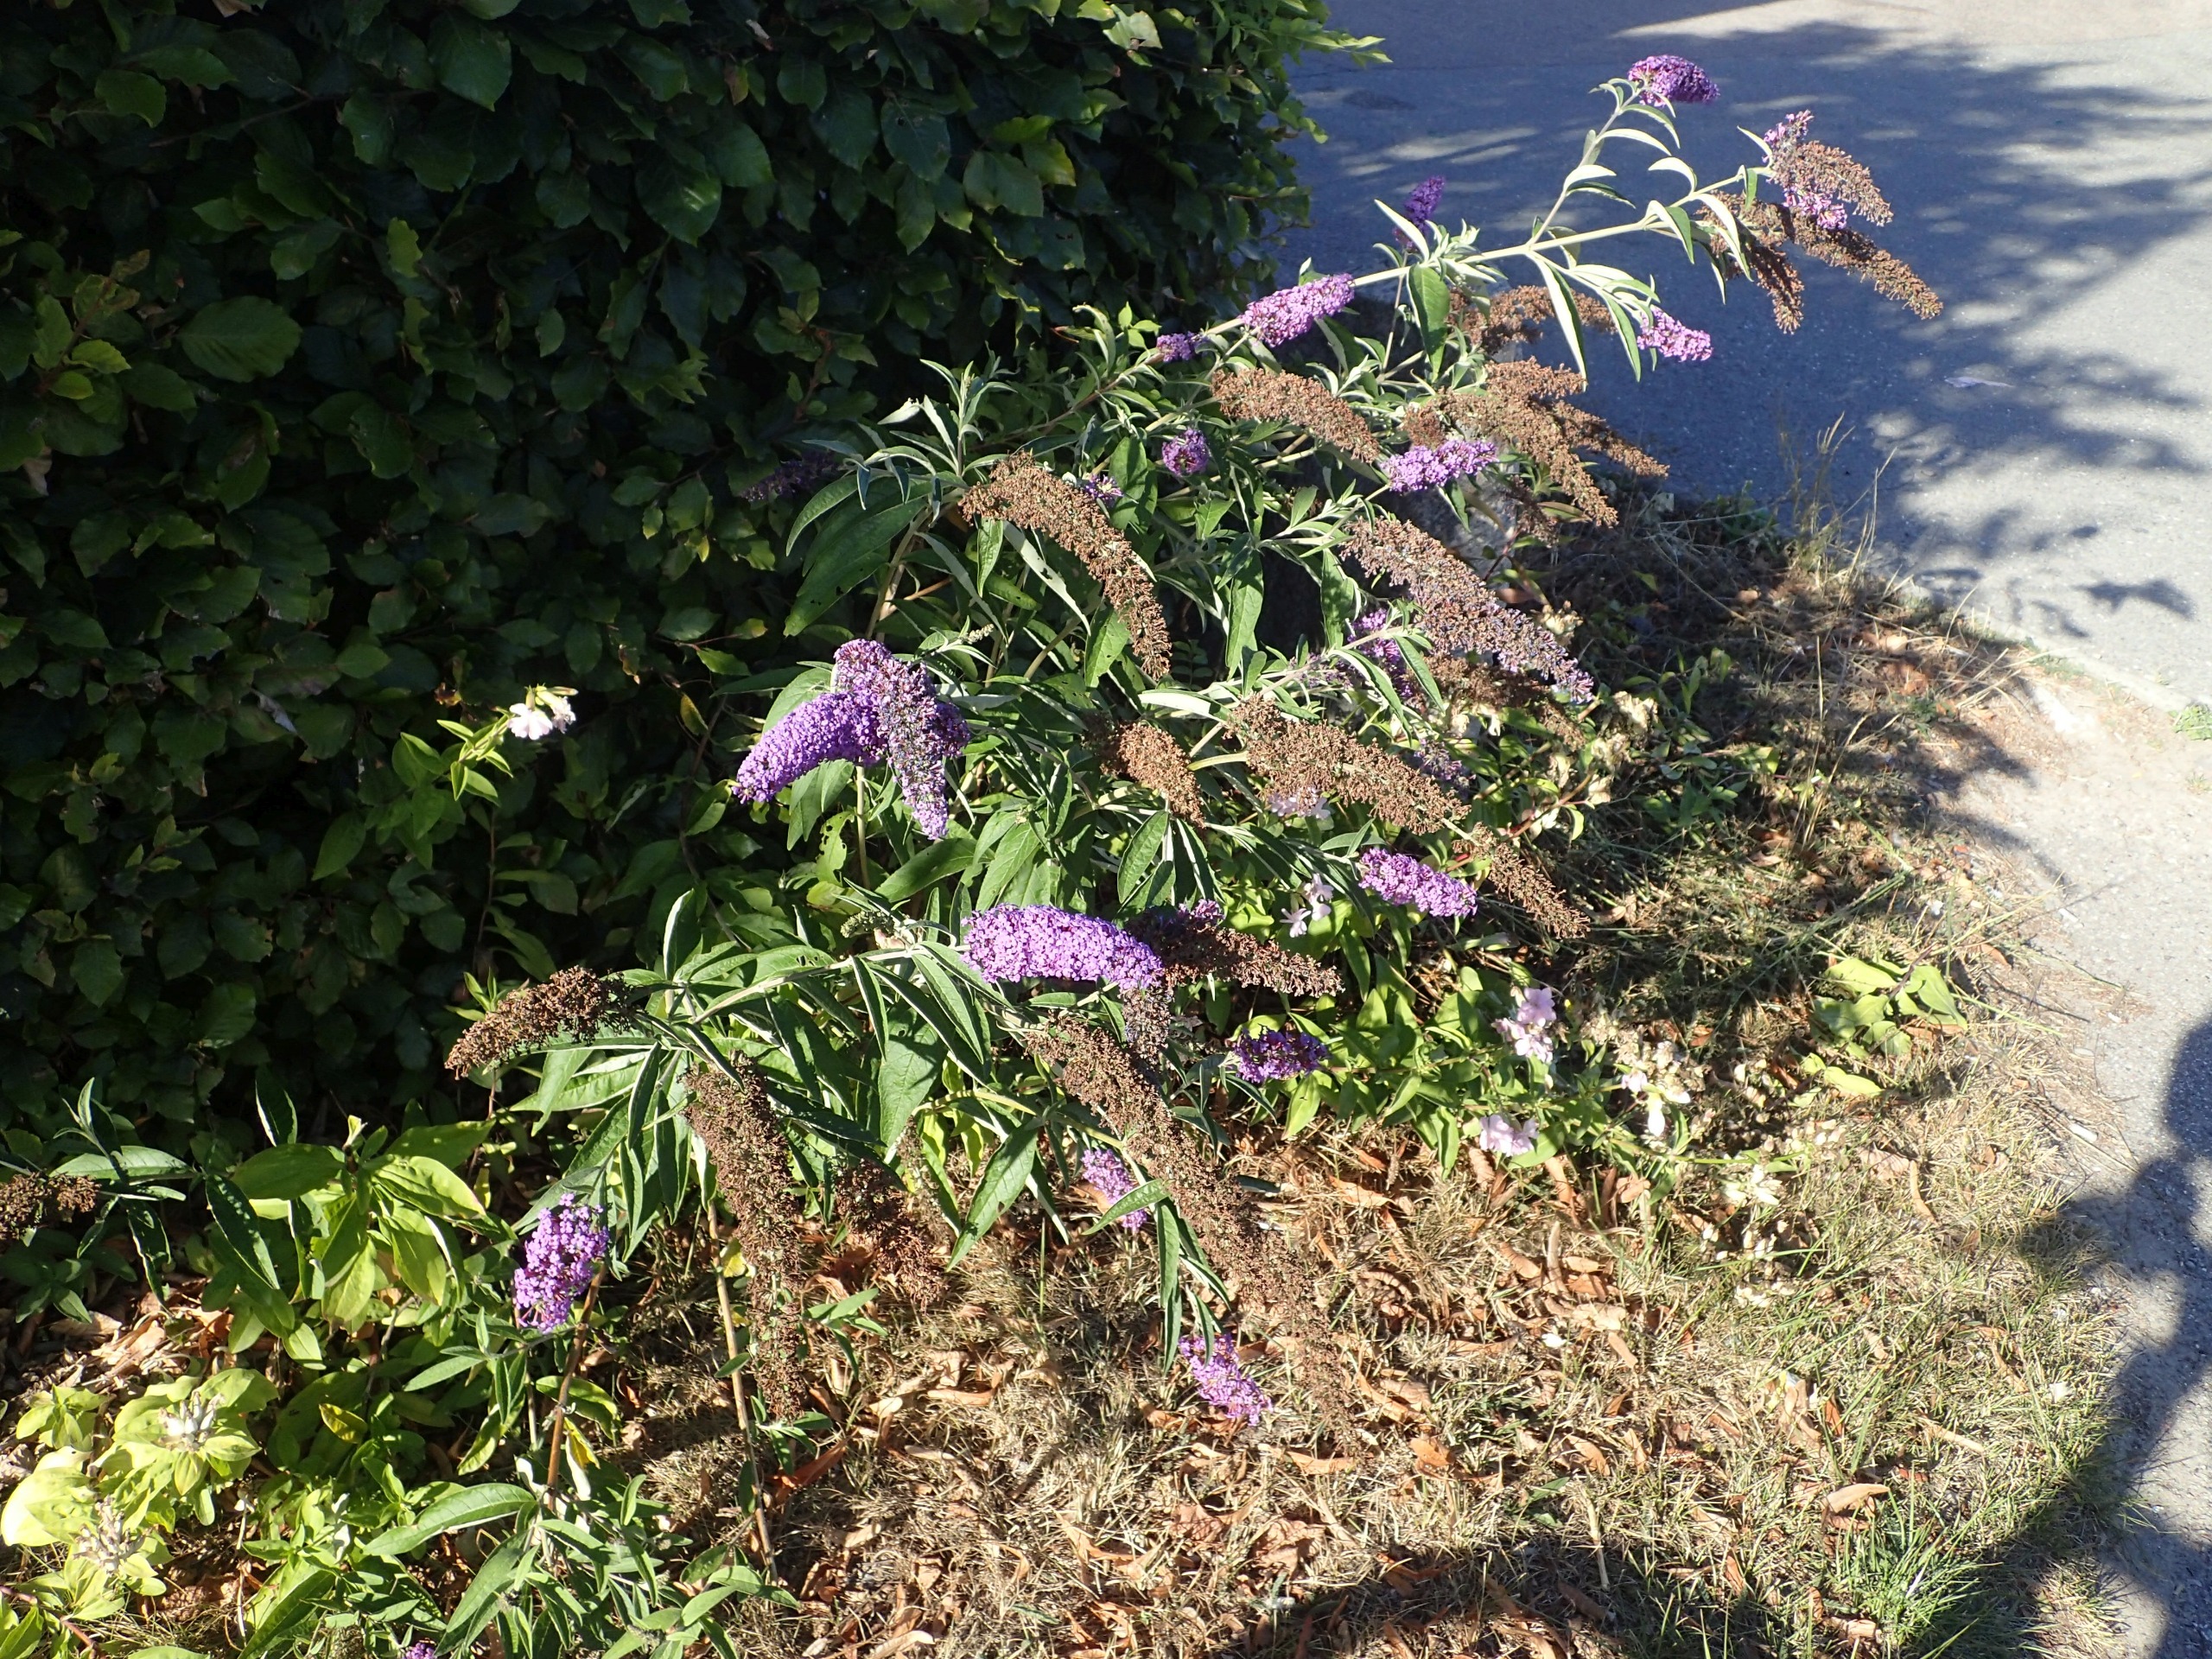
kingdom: Plantae
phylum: Tracheophyta
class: Magnoliopsida
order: Lamiales
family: Scrophulariaceae
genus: Buddleja
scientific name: Buddleja davidii
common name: Sommerfuglebusk
